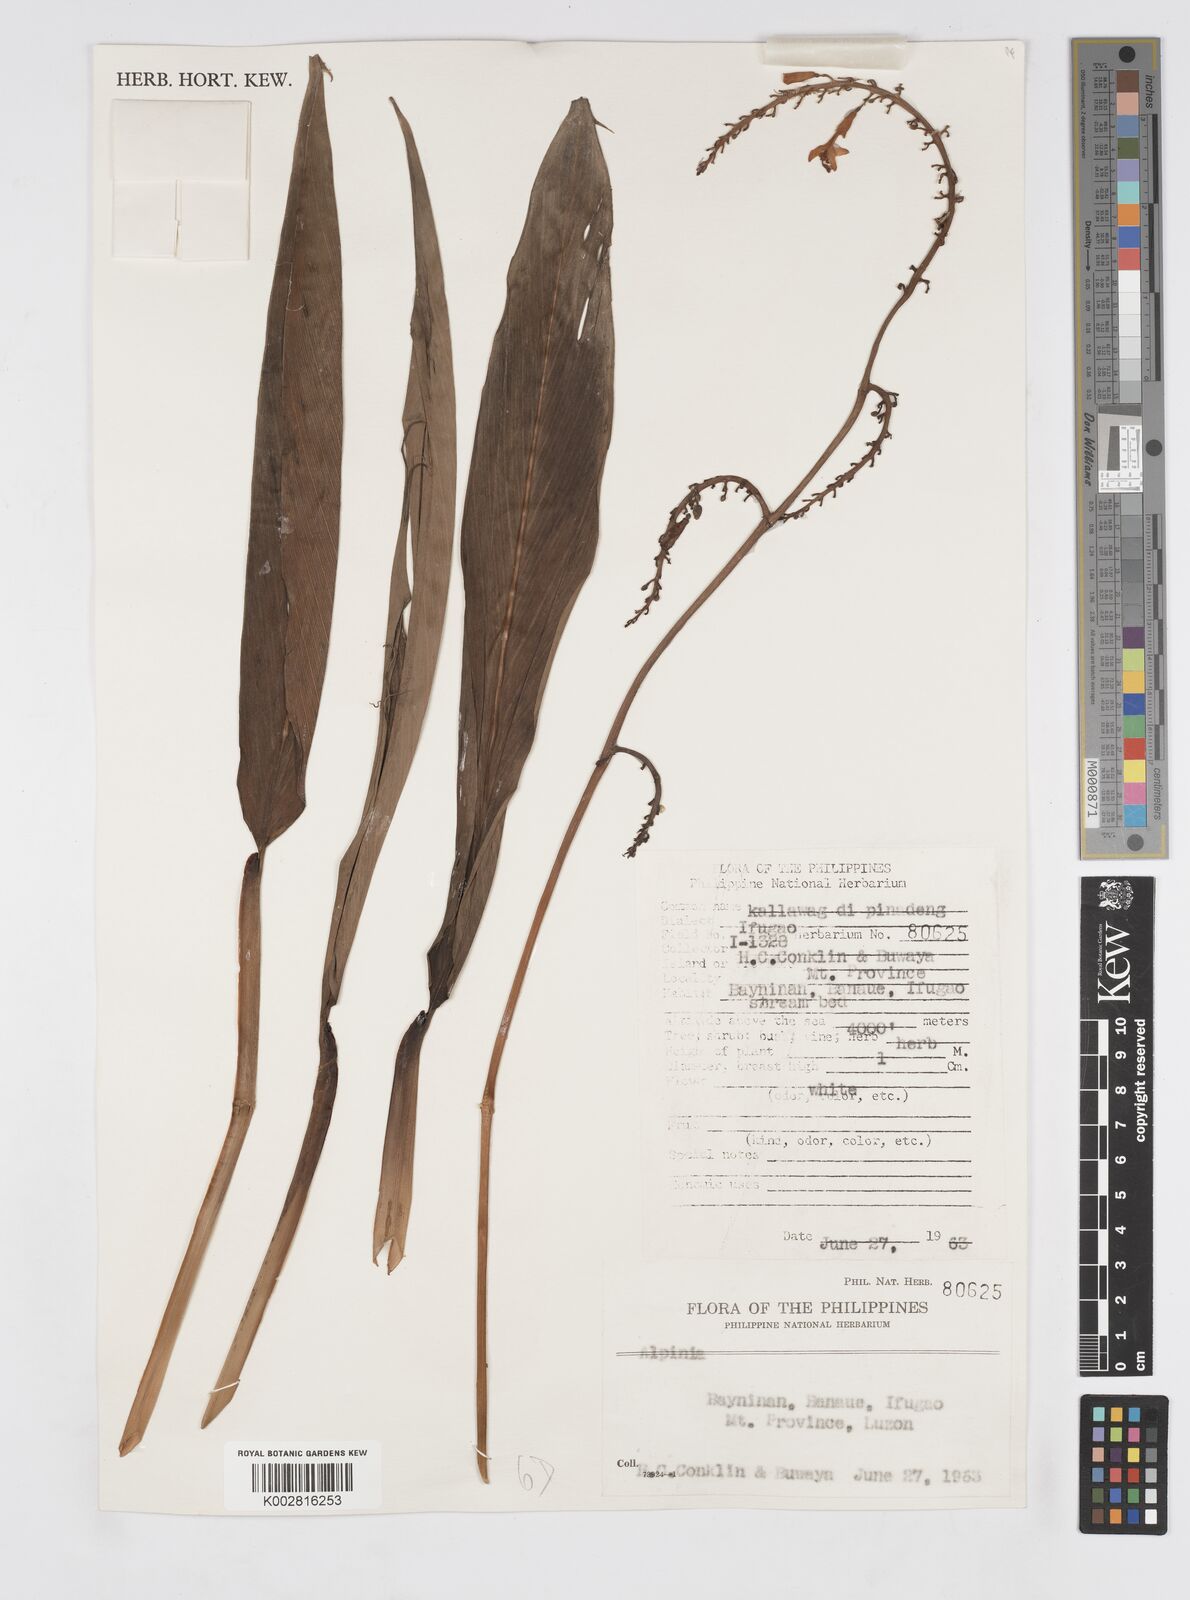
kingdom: Plantae
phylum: Tracheophyta
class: Liliopsida
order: Zingiberales
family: Zingiberaceae
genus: Alpinia
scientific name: Alpinia
